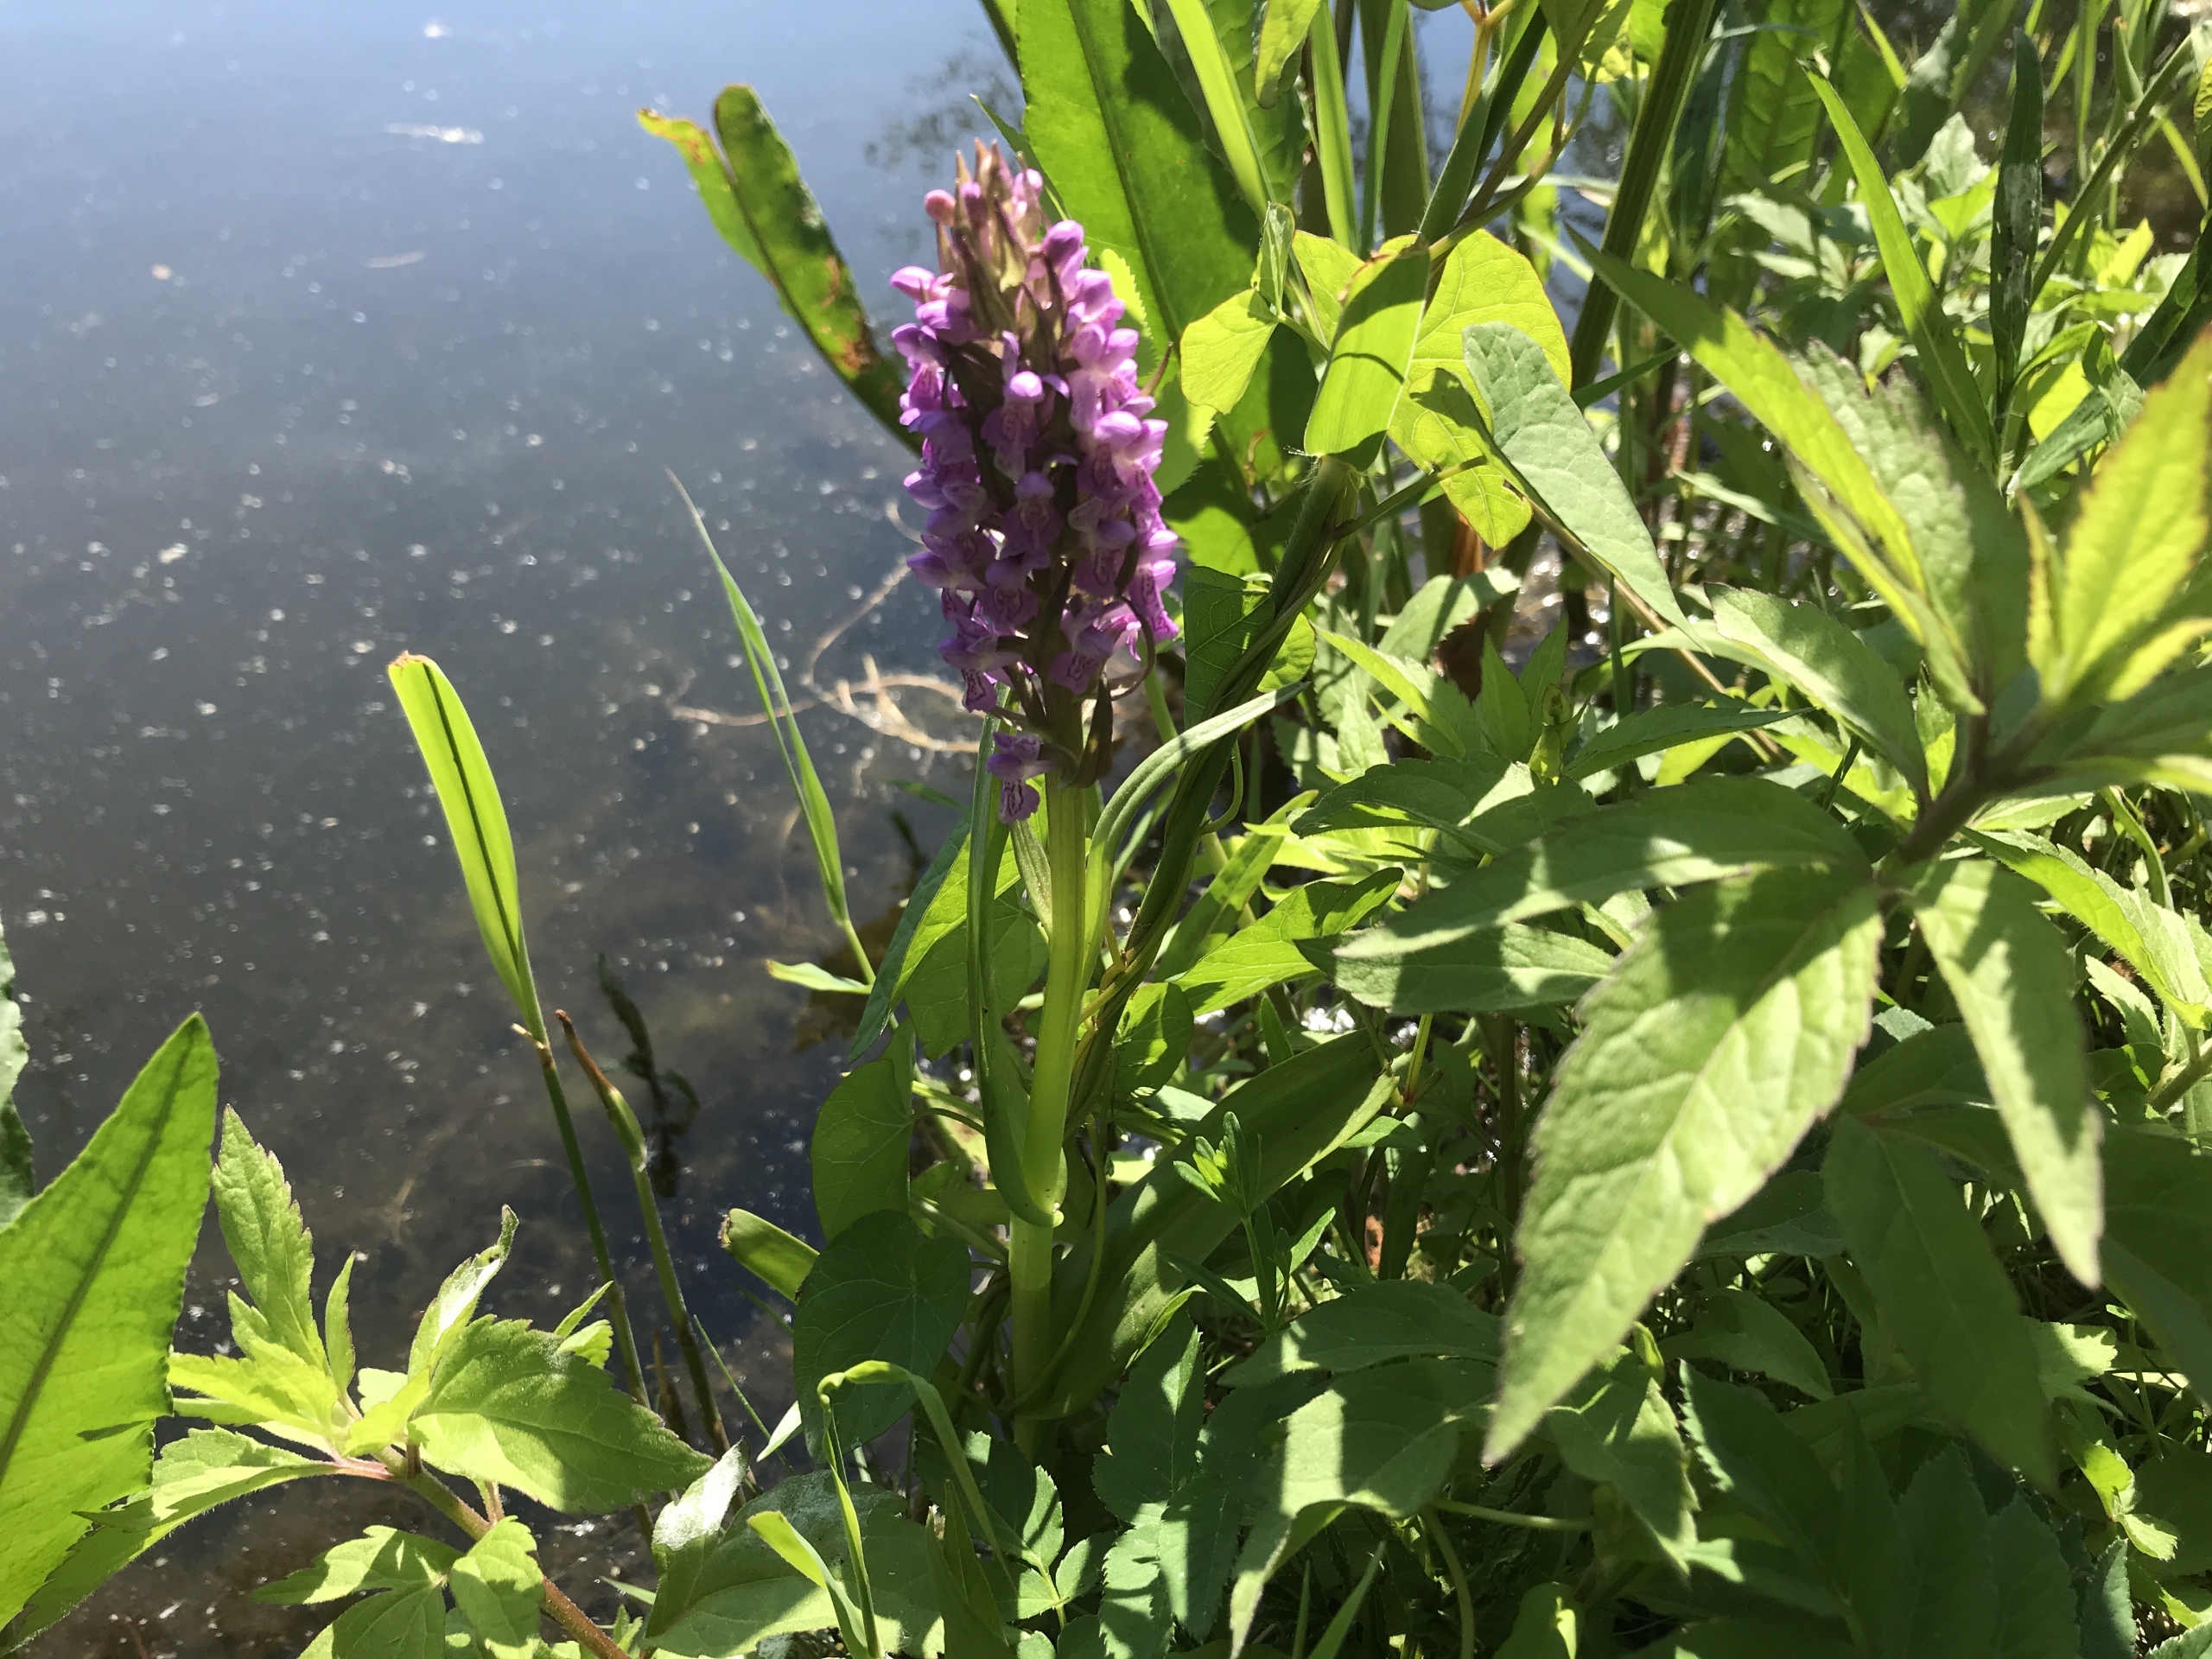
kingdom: Plantae
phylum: Tracheophyta
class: Liliopsida
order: Asparagales
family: Orchidaceae
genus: Dactylorhiza
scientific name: Dactylorhiza incarnata
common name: Kødfarvet gøgeurt (varietet)
